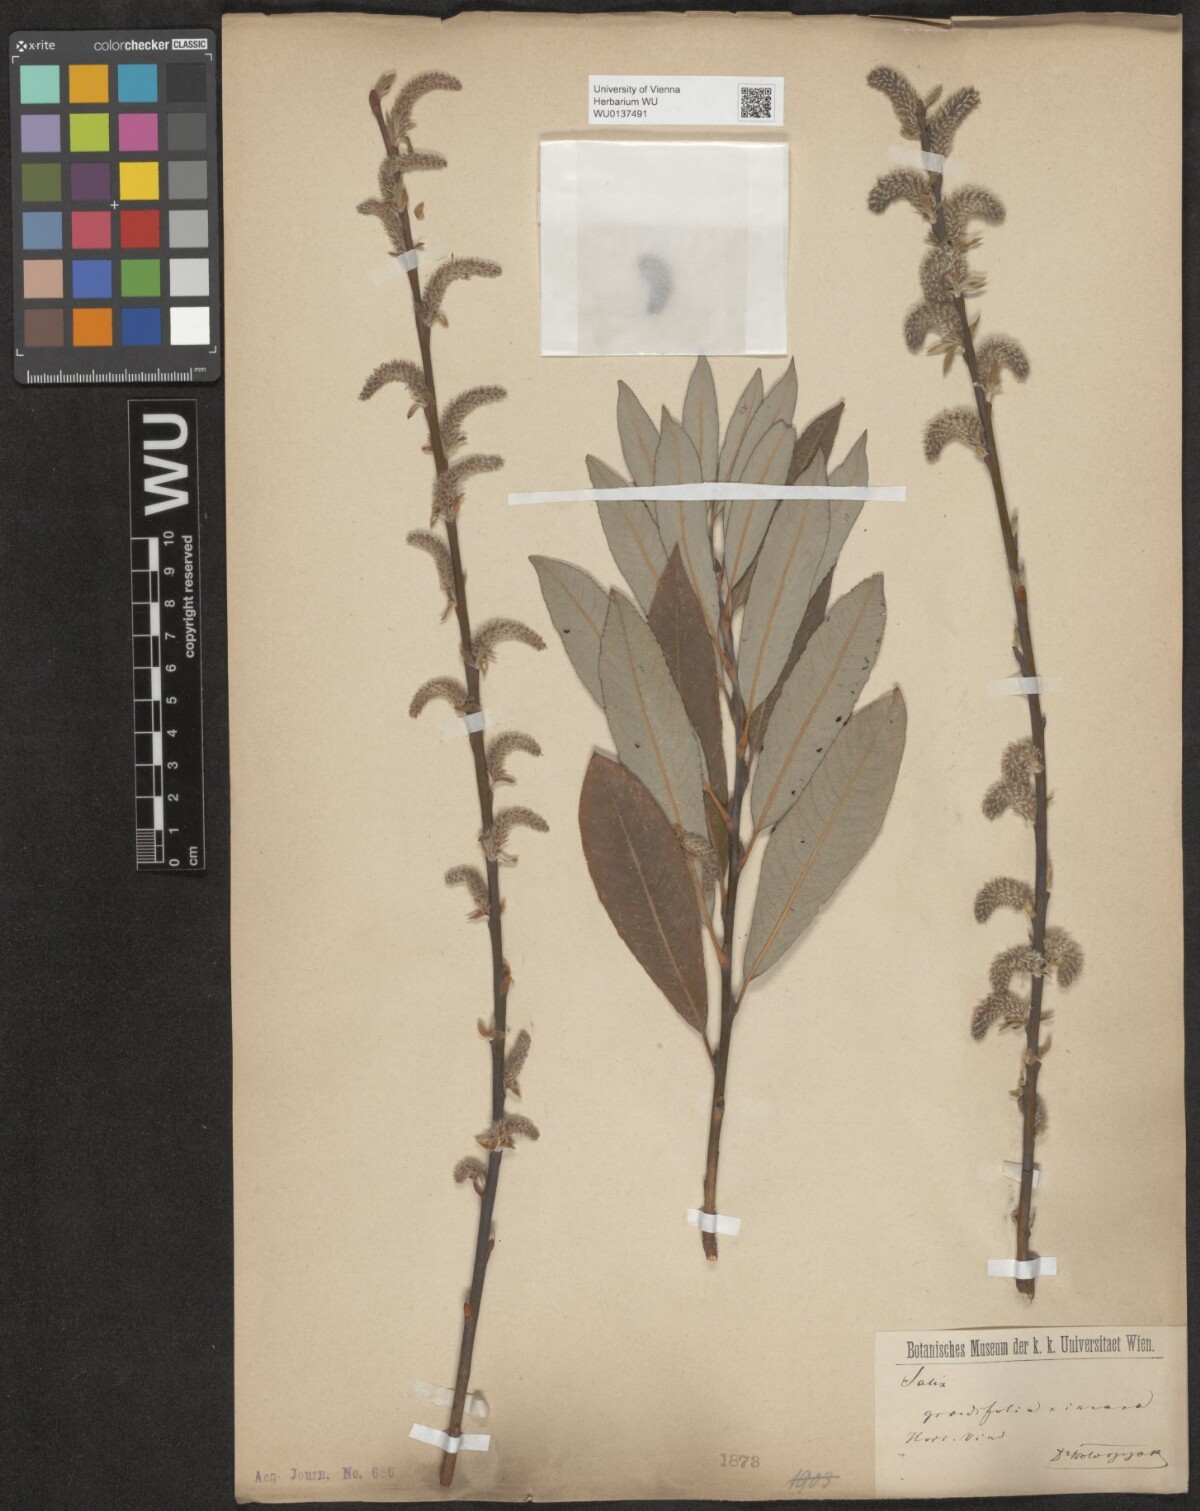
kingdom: Plantae
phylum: Tracheophyta
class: Magnoliopsida
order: Malpighiales
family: Salicaceae
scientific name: Salicaceae
